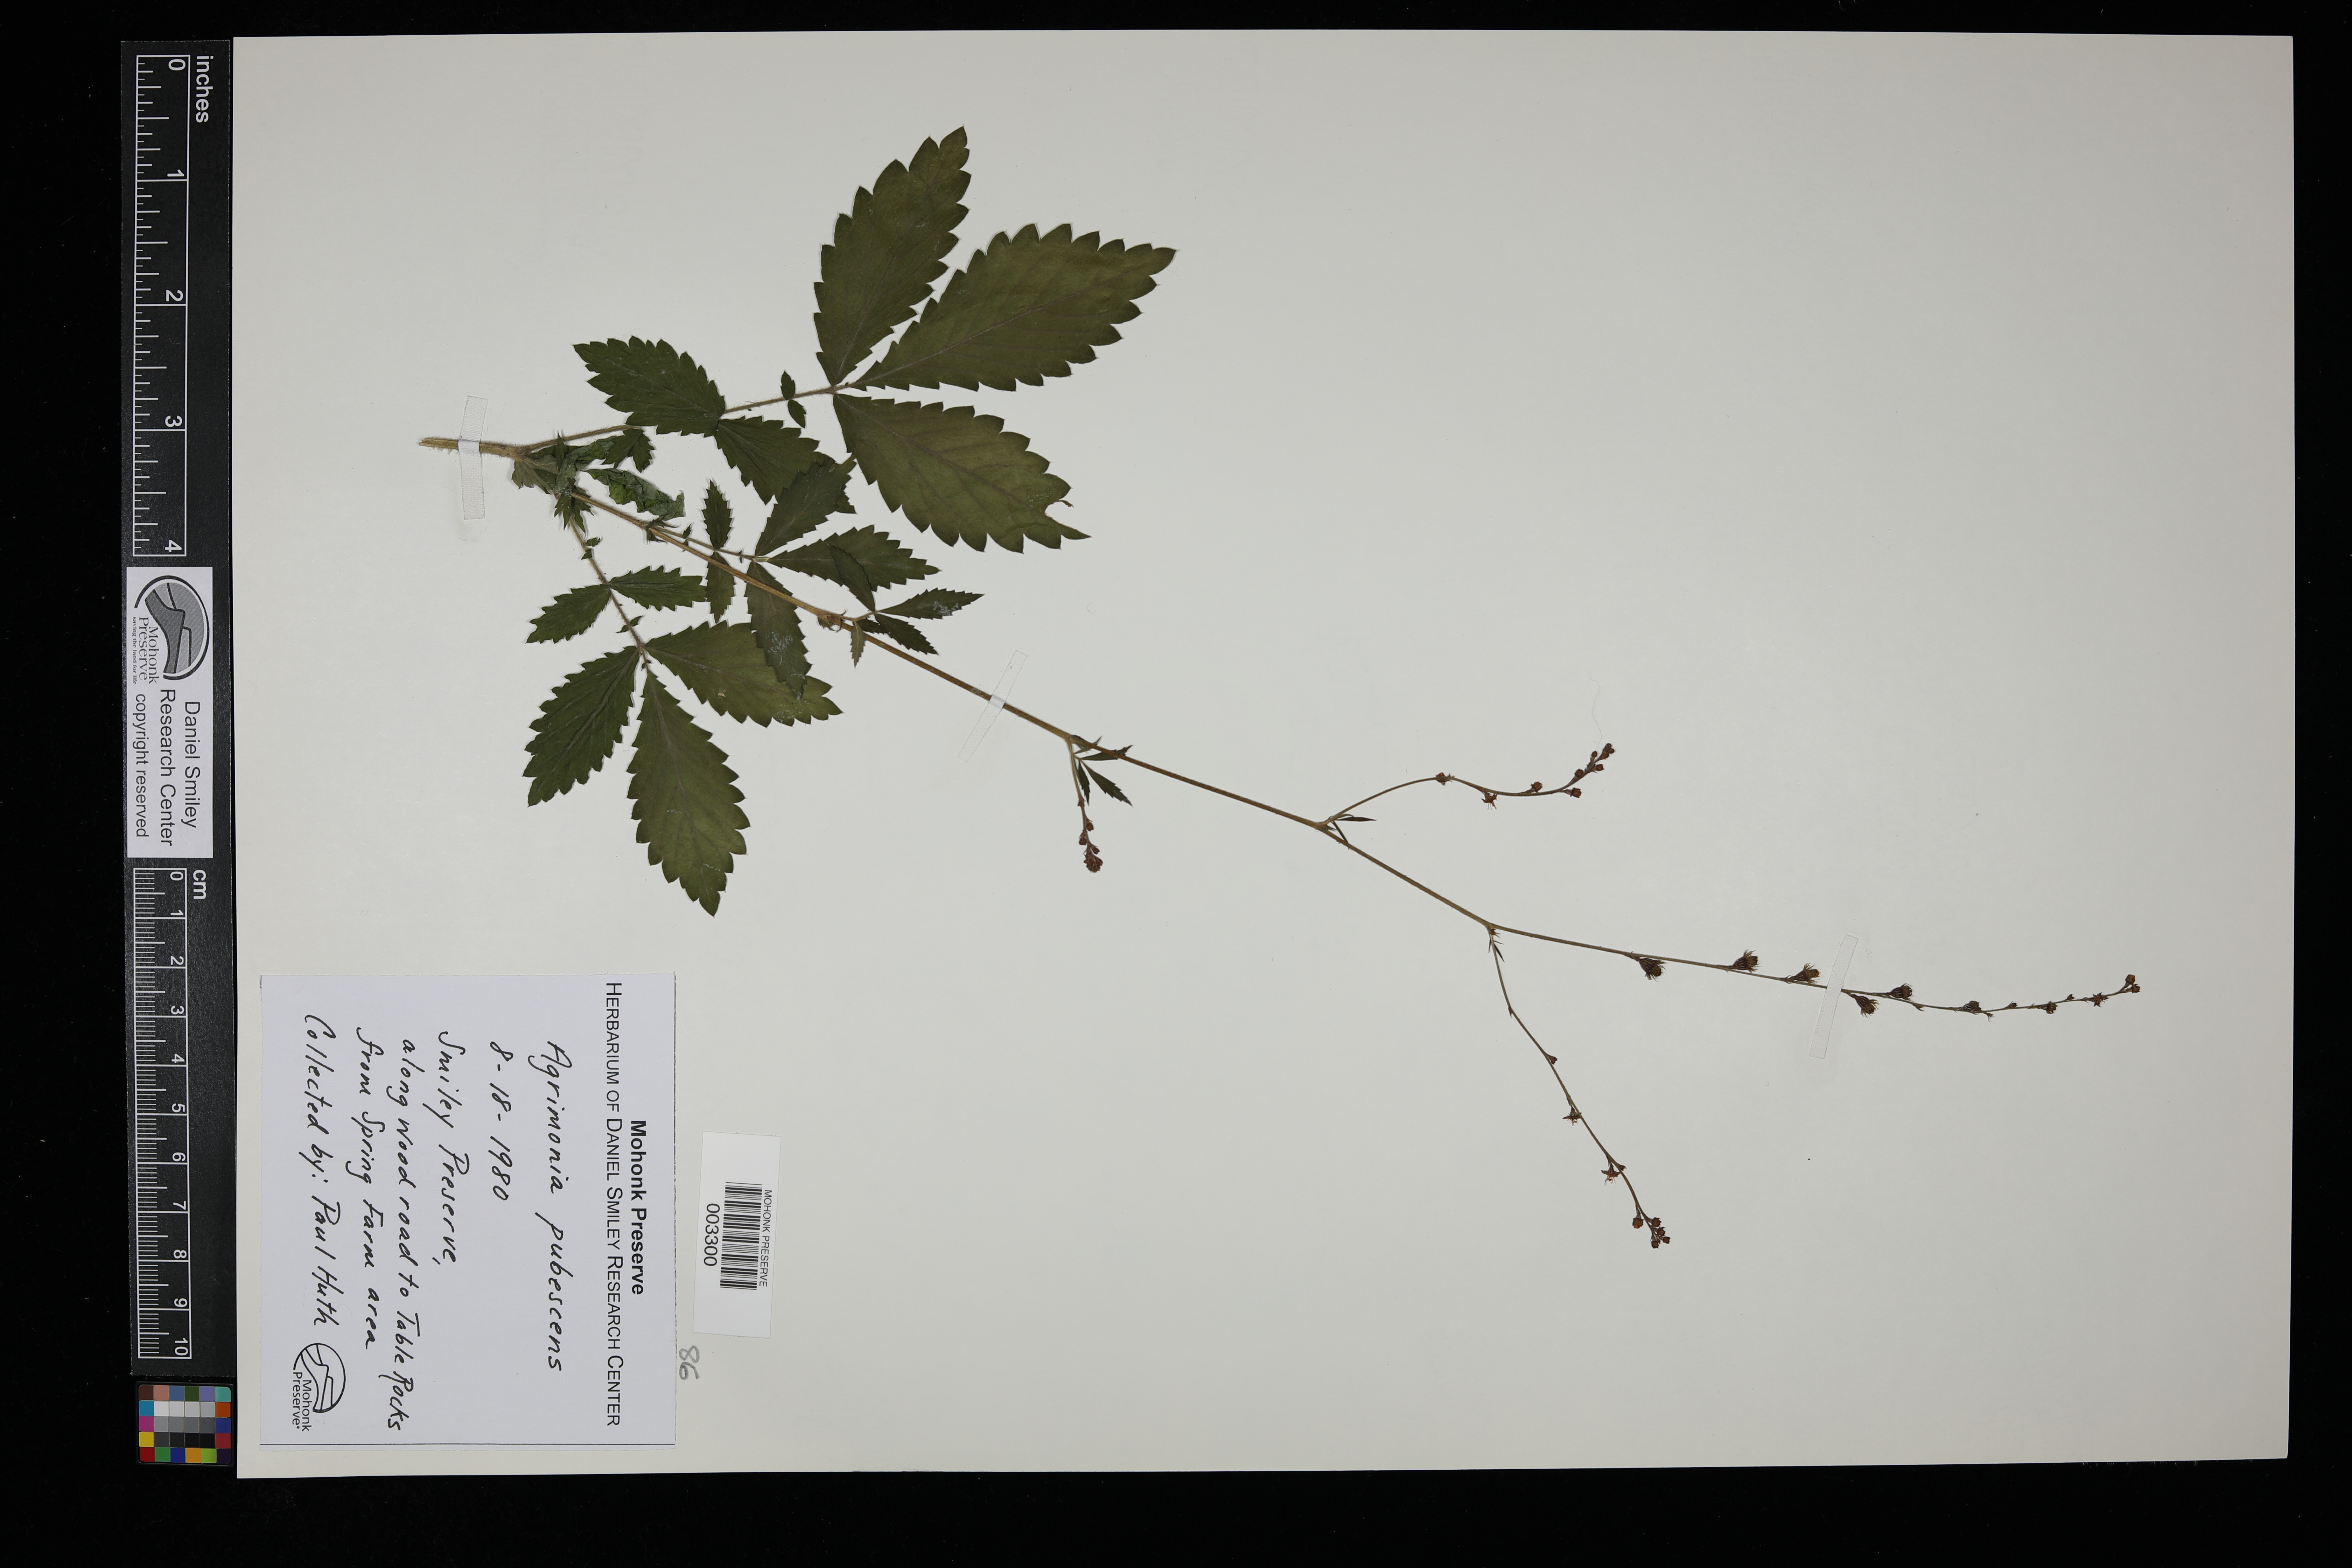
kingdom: Plantae
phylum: Tracheophyta
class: Magnoliopsida
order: Rosales
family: Rosaceae
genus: Agrimonia
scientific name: Agrimonia pubescens
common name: Downy agrimony
